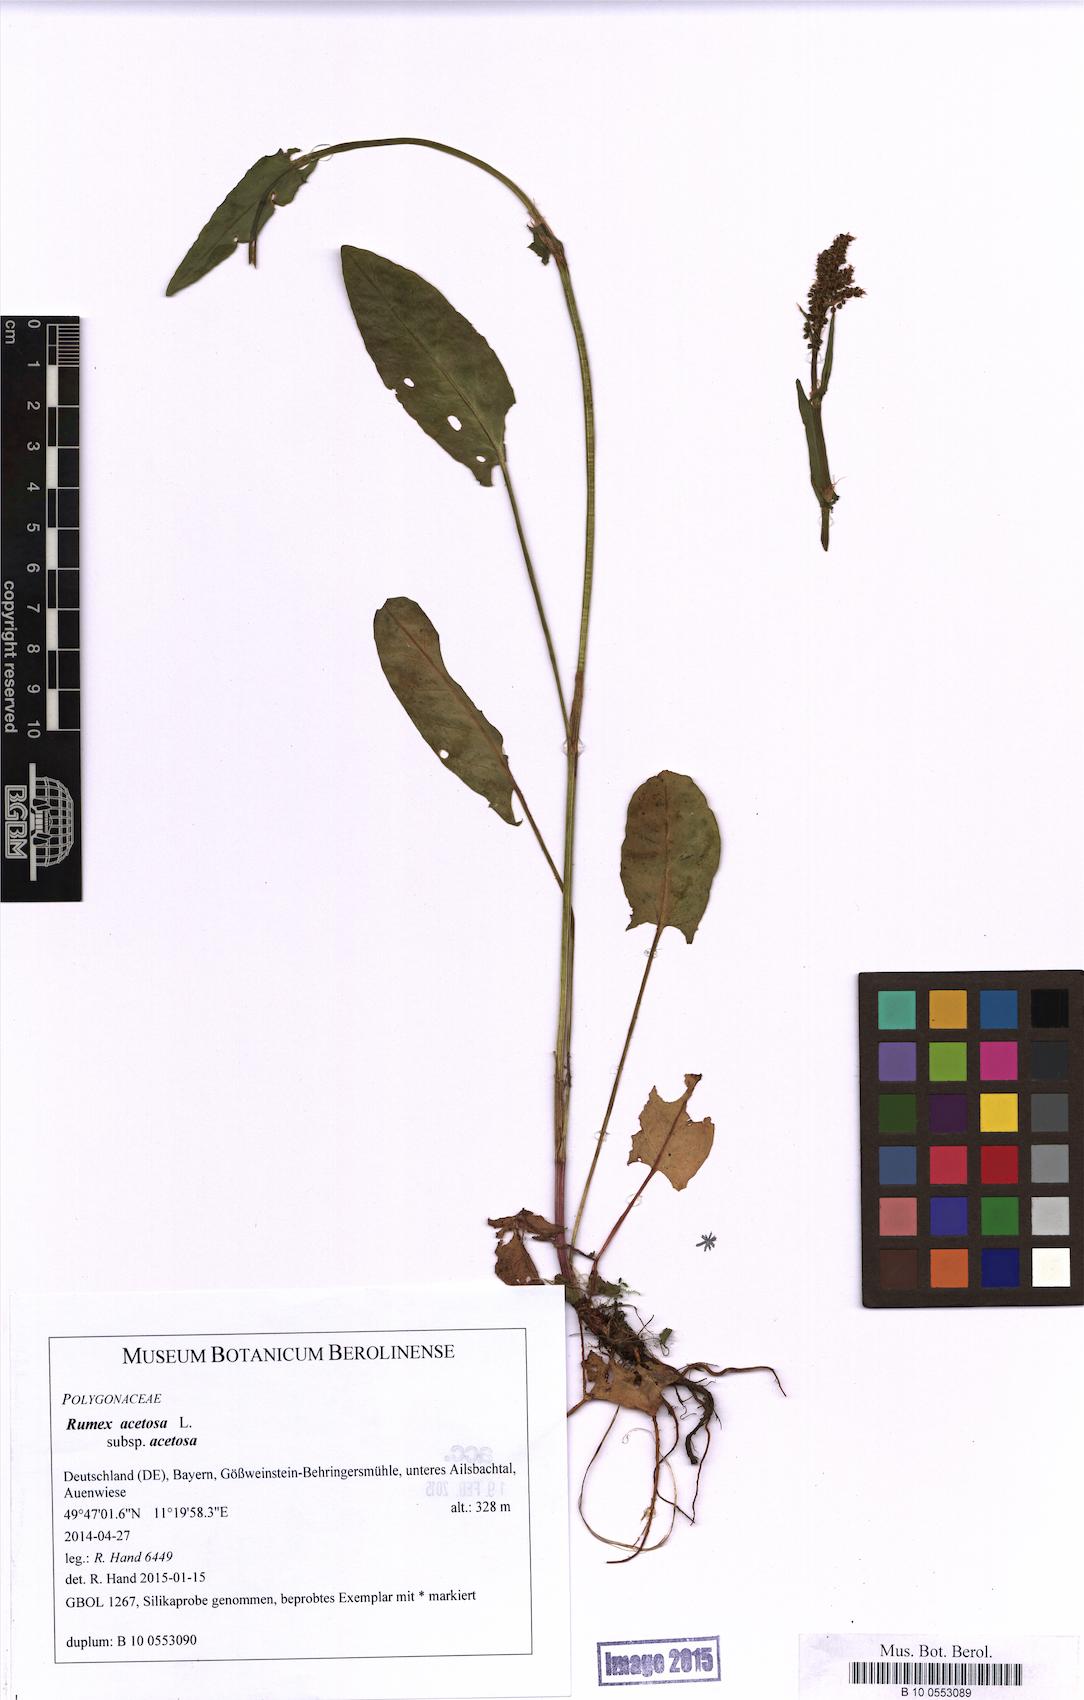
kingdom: Plantae
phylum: Tracheophyta
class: Magnoliopsida
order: Caryophyllales
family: Polygonaceae
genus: Rumex
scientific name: Rumex acetosa
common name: Garden sorrel
